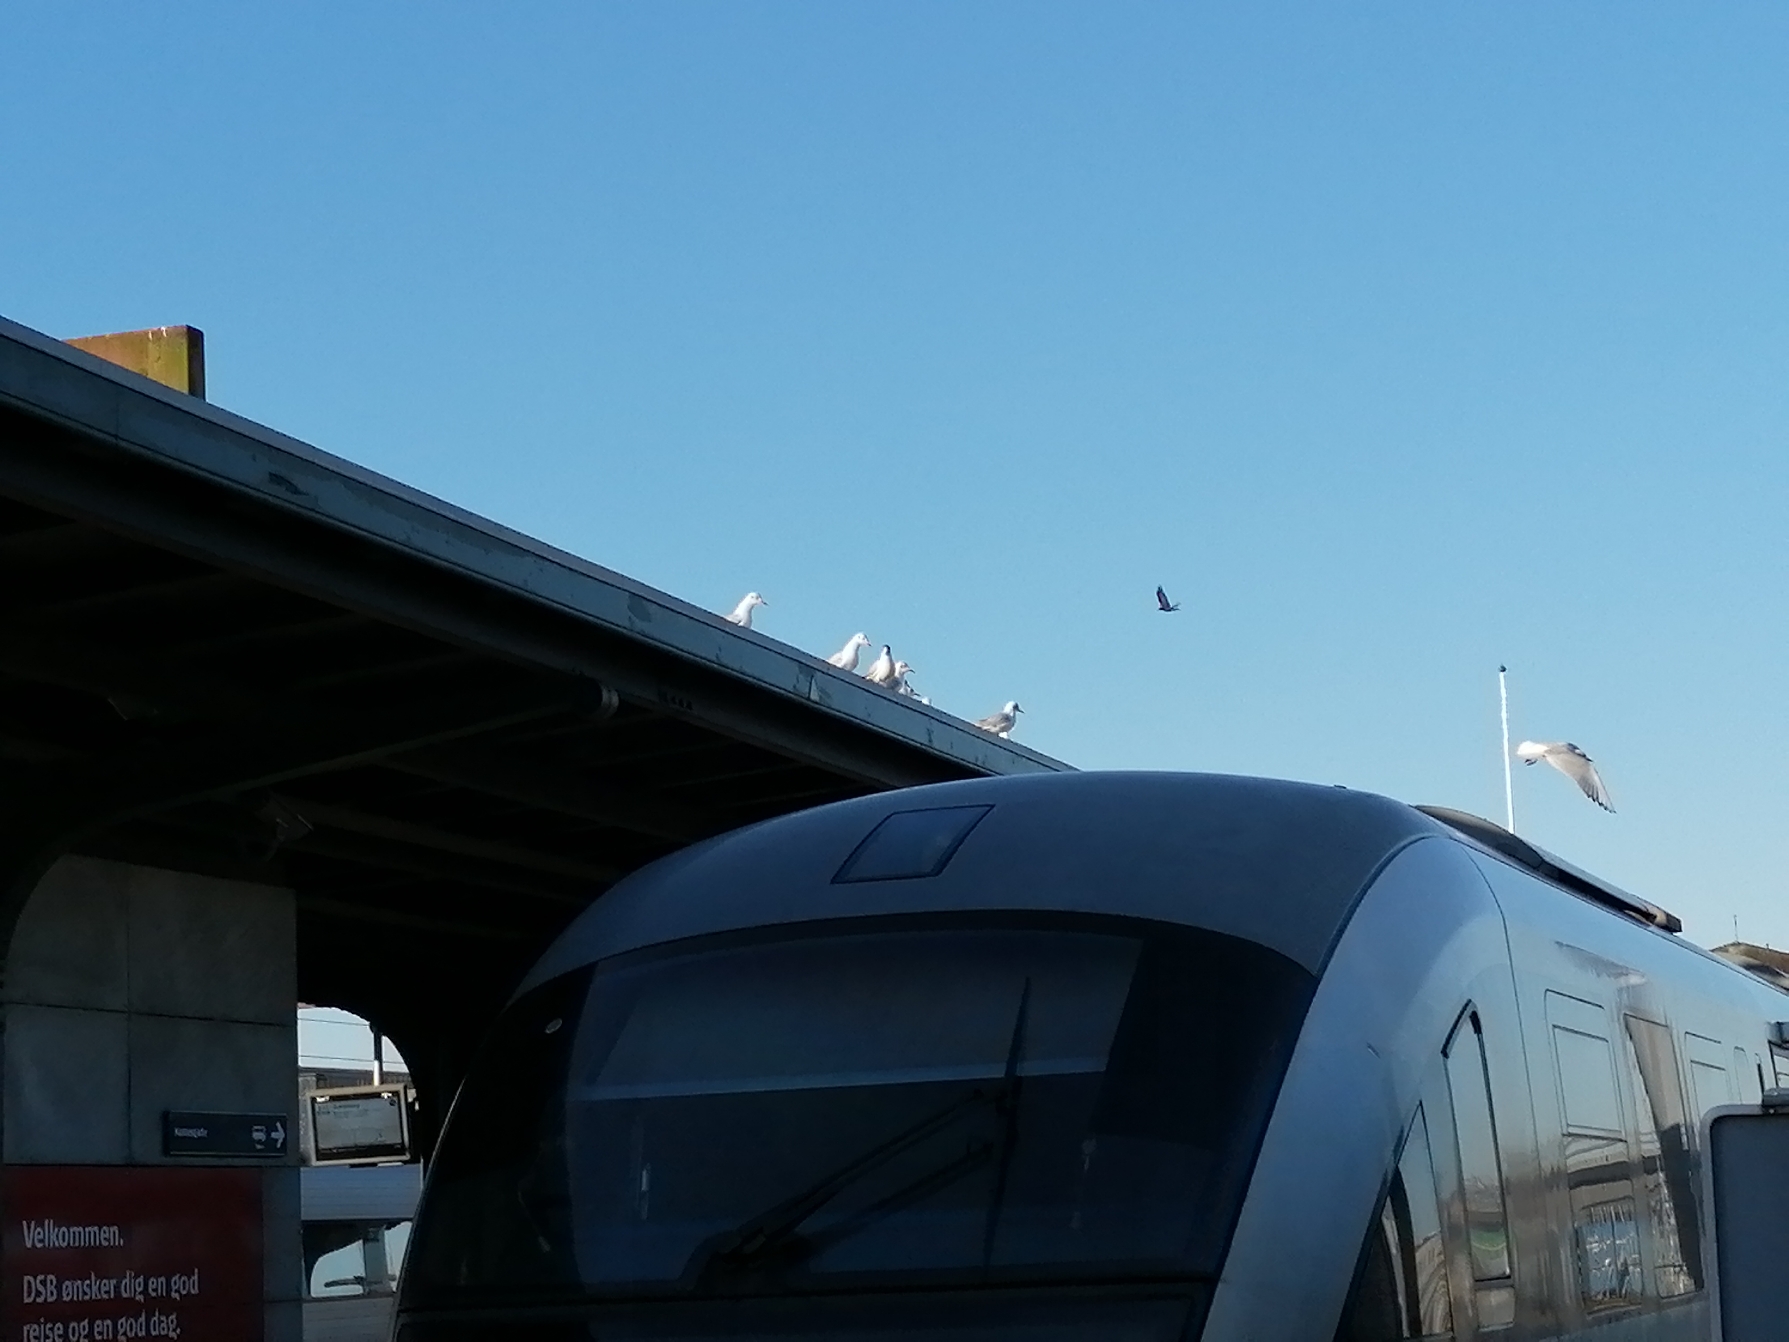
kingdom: Animalia
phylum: Chordata
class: Aves
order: Charadriiformes
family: Laridae
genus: Chroicocephalus
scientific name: Chroicocephalus ridibundus
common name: Hættemåge
